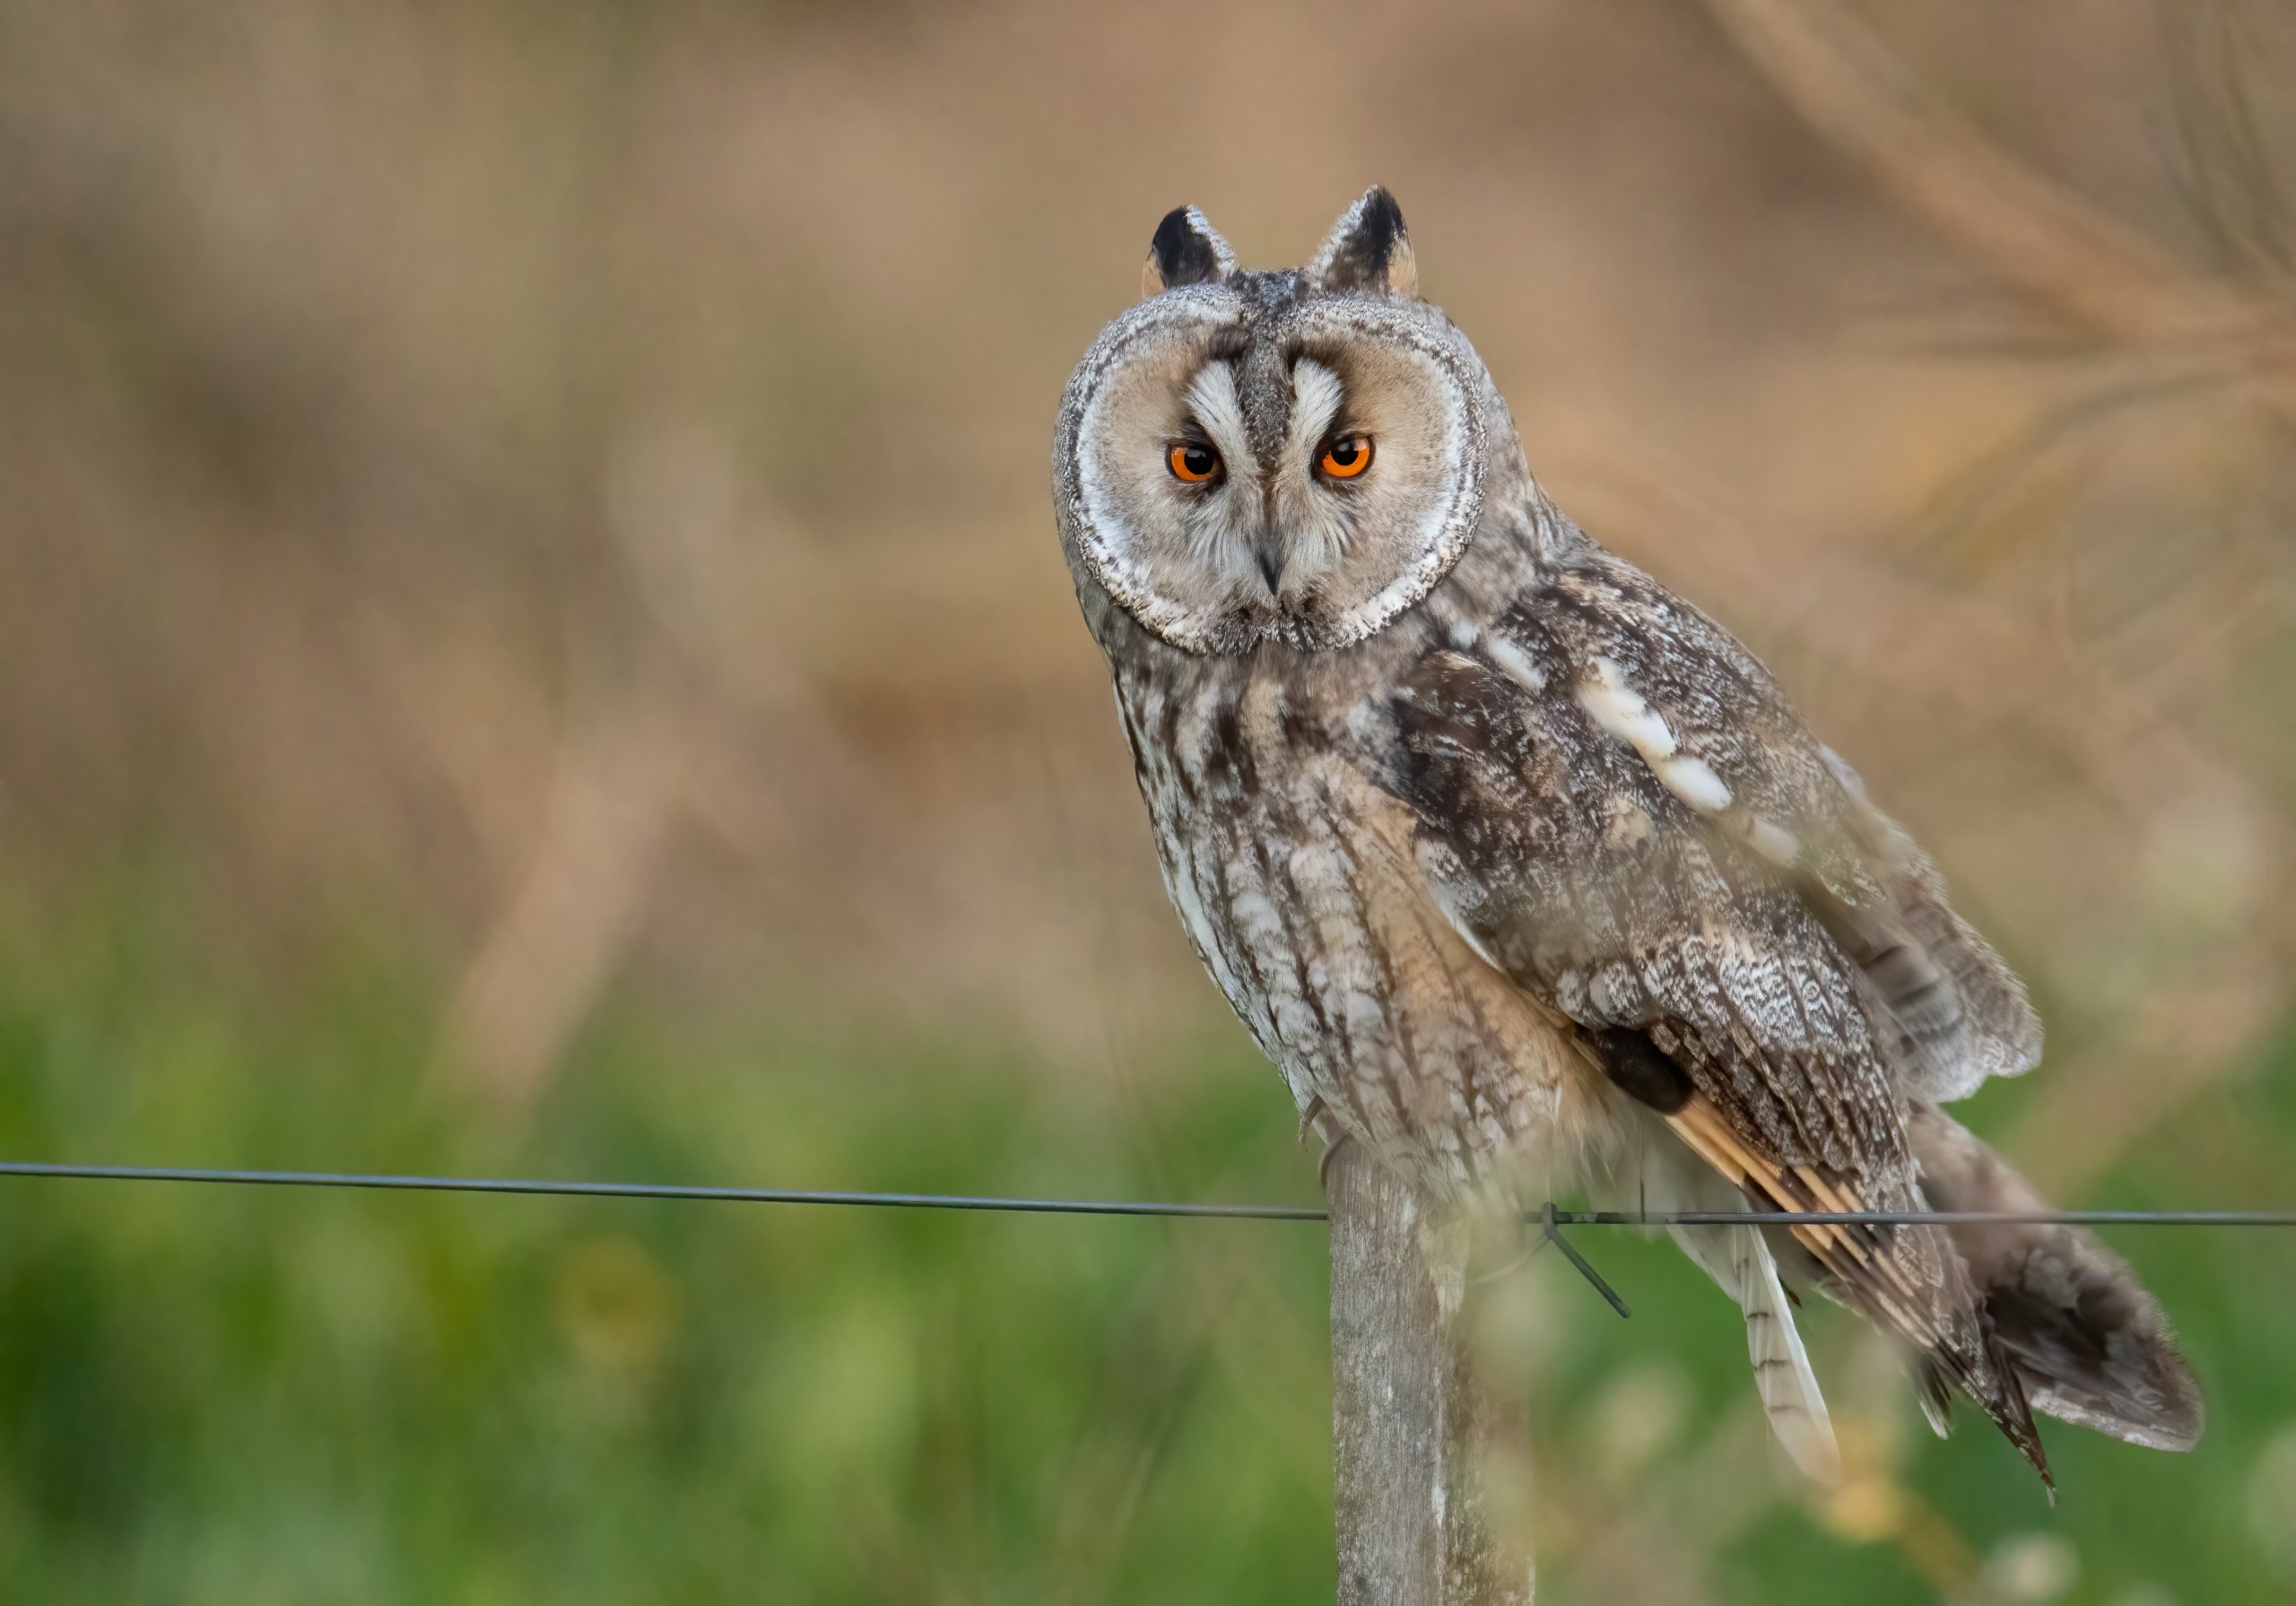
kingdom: Animalia
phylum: Chordata
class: Aves
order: Strigiformes
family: Strigidae
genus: Asio
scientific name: Asio otus
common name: Skovhornugle
